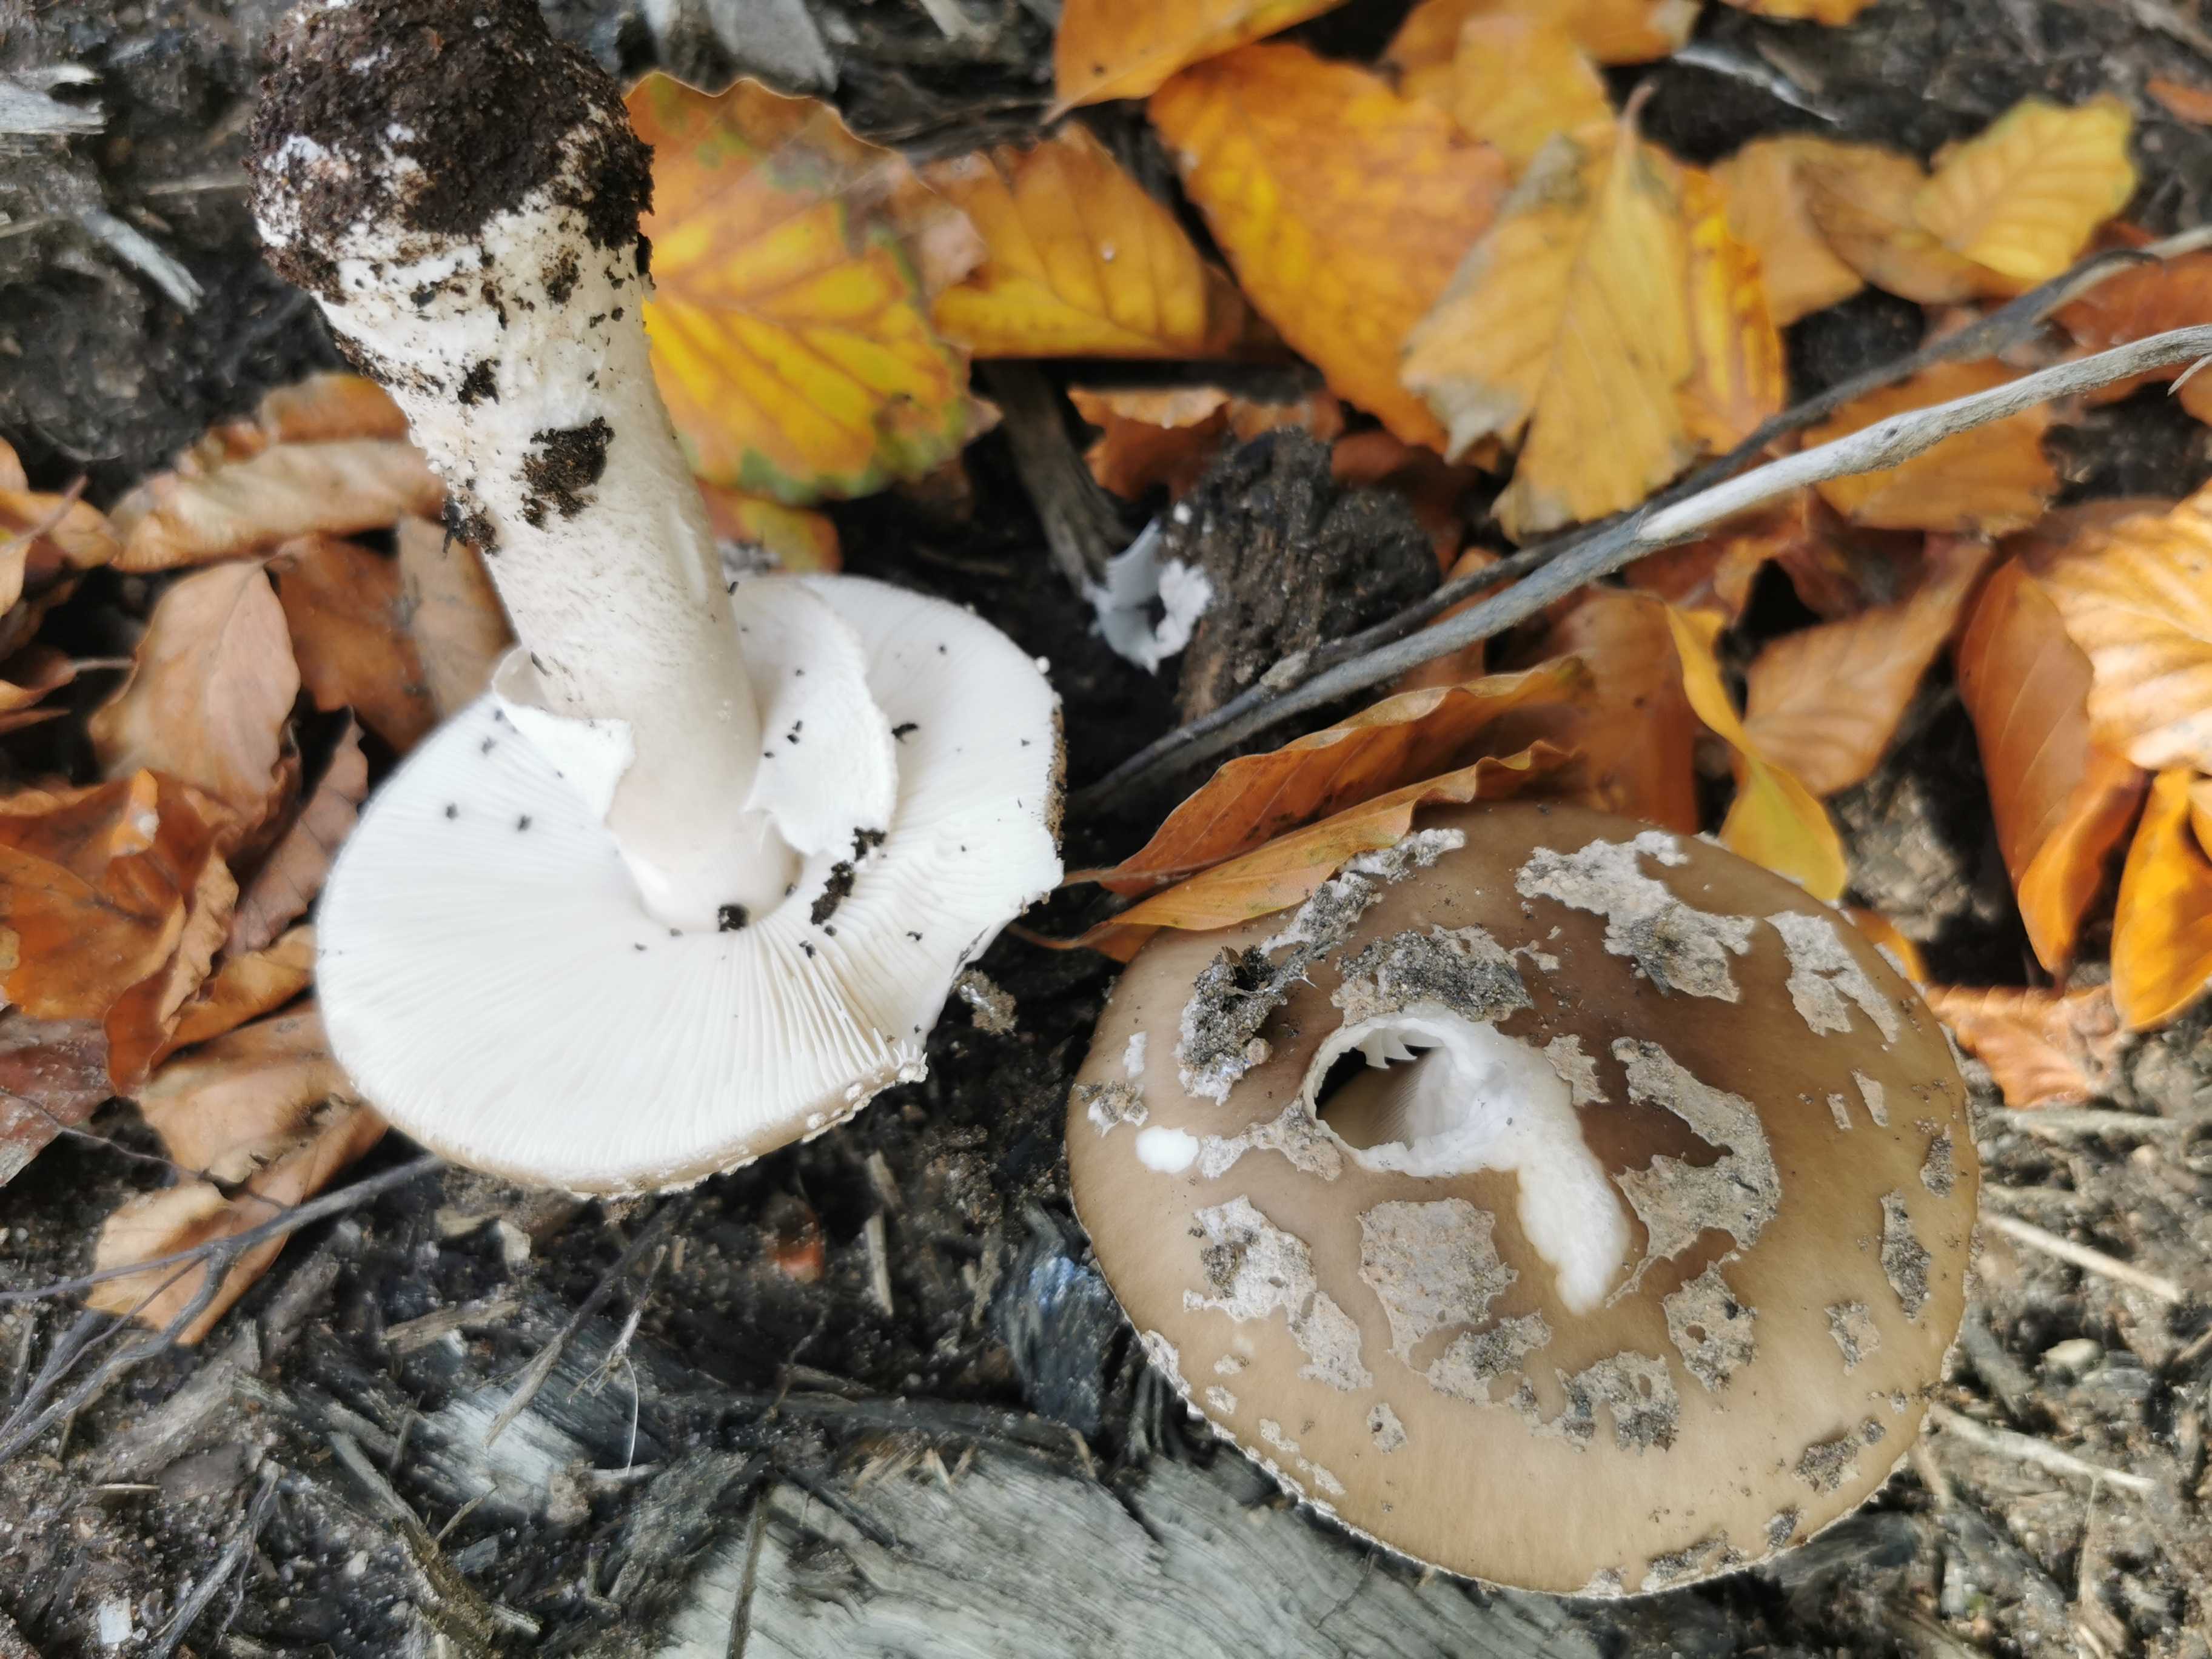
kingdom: Fungi
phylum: Basidiomycota
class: Agaricomycetes
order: Agaricales
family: Amanitaceae
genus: Amanita
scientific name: Amanita
